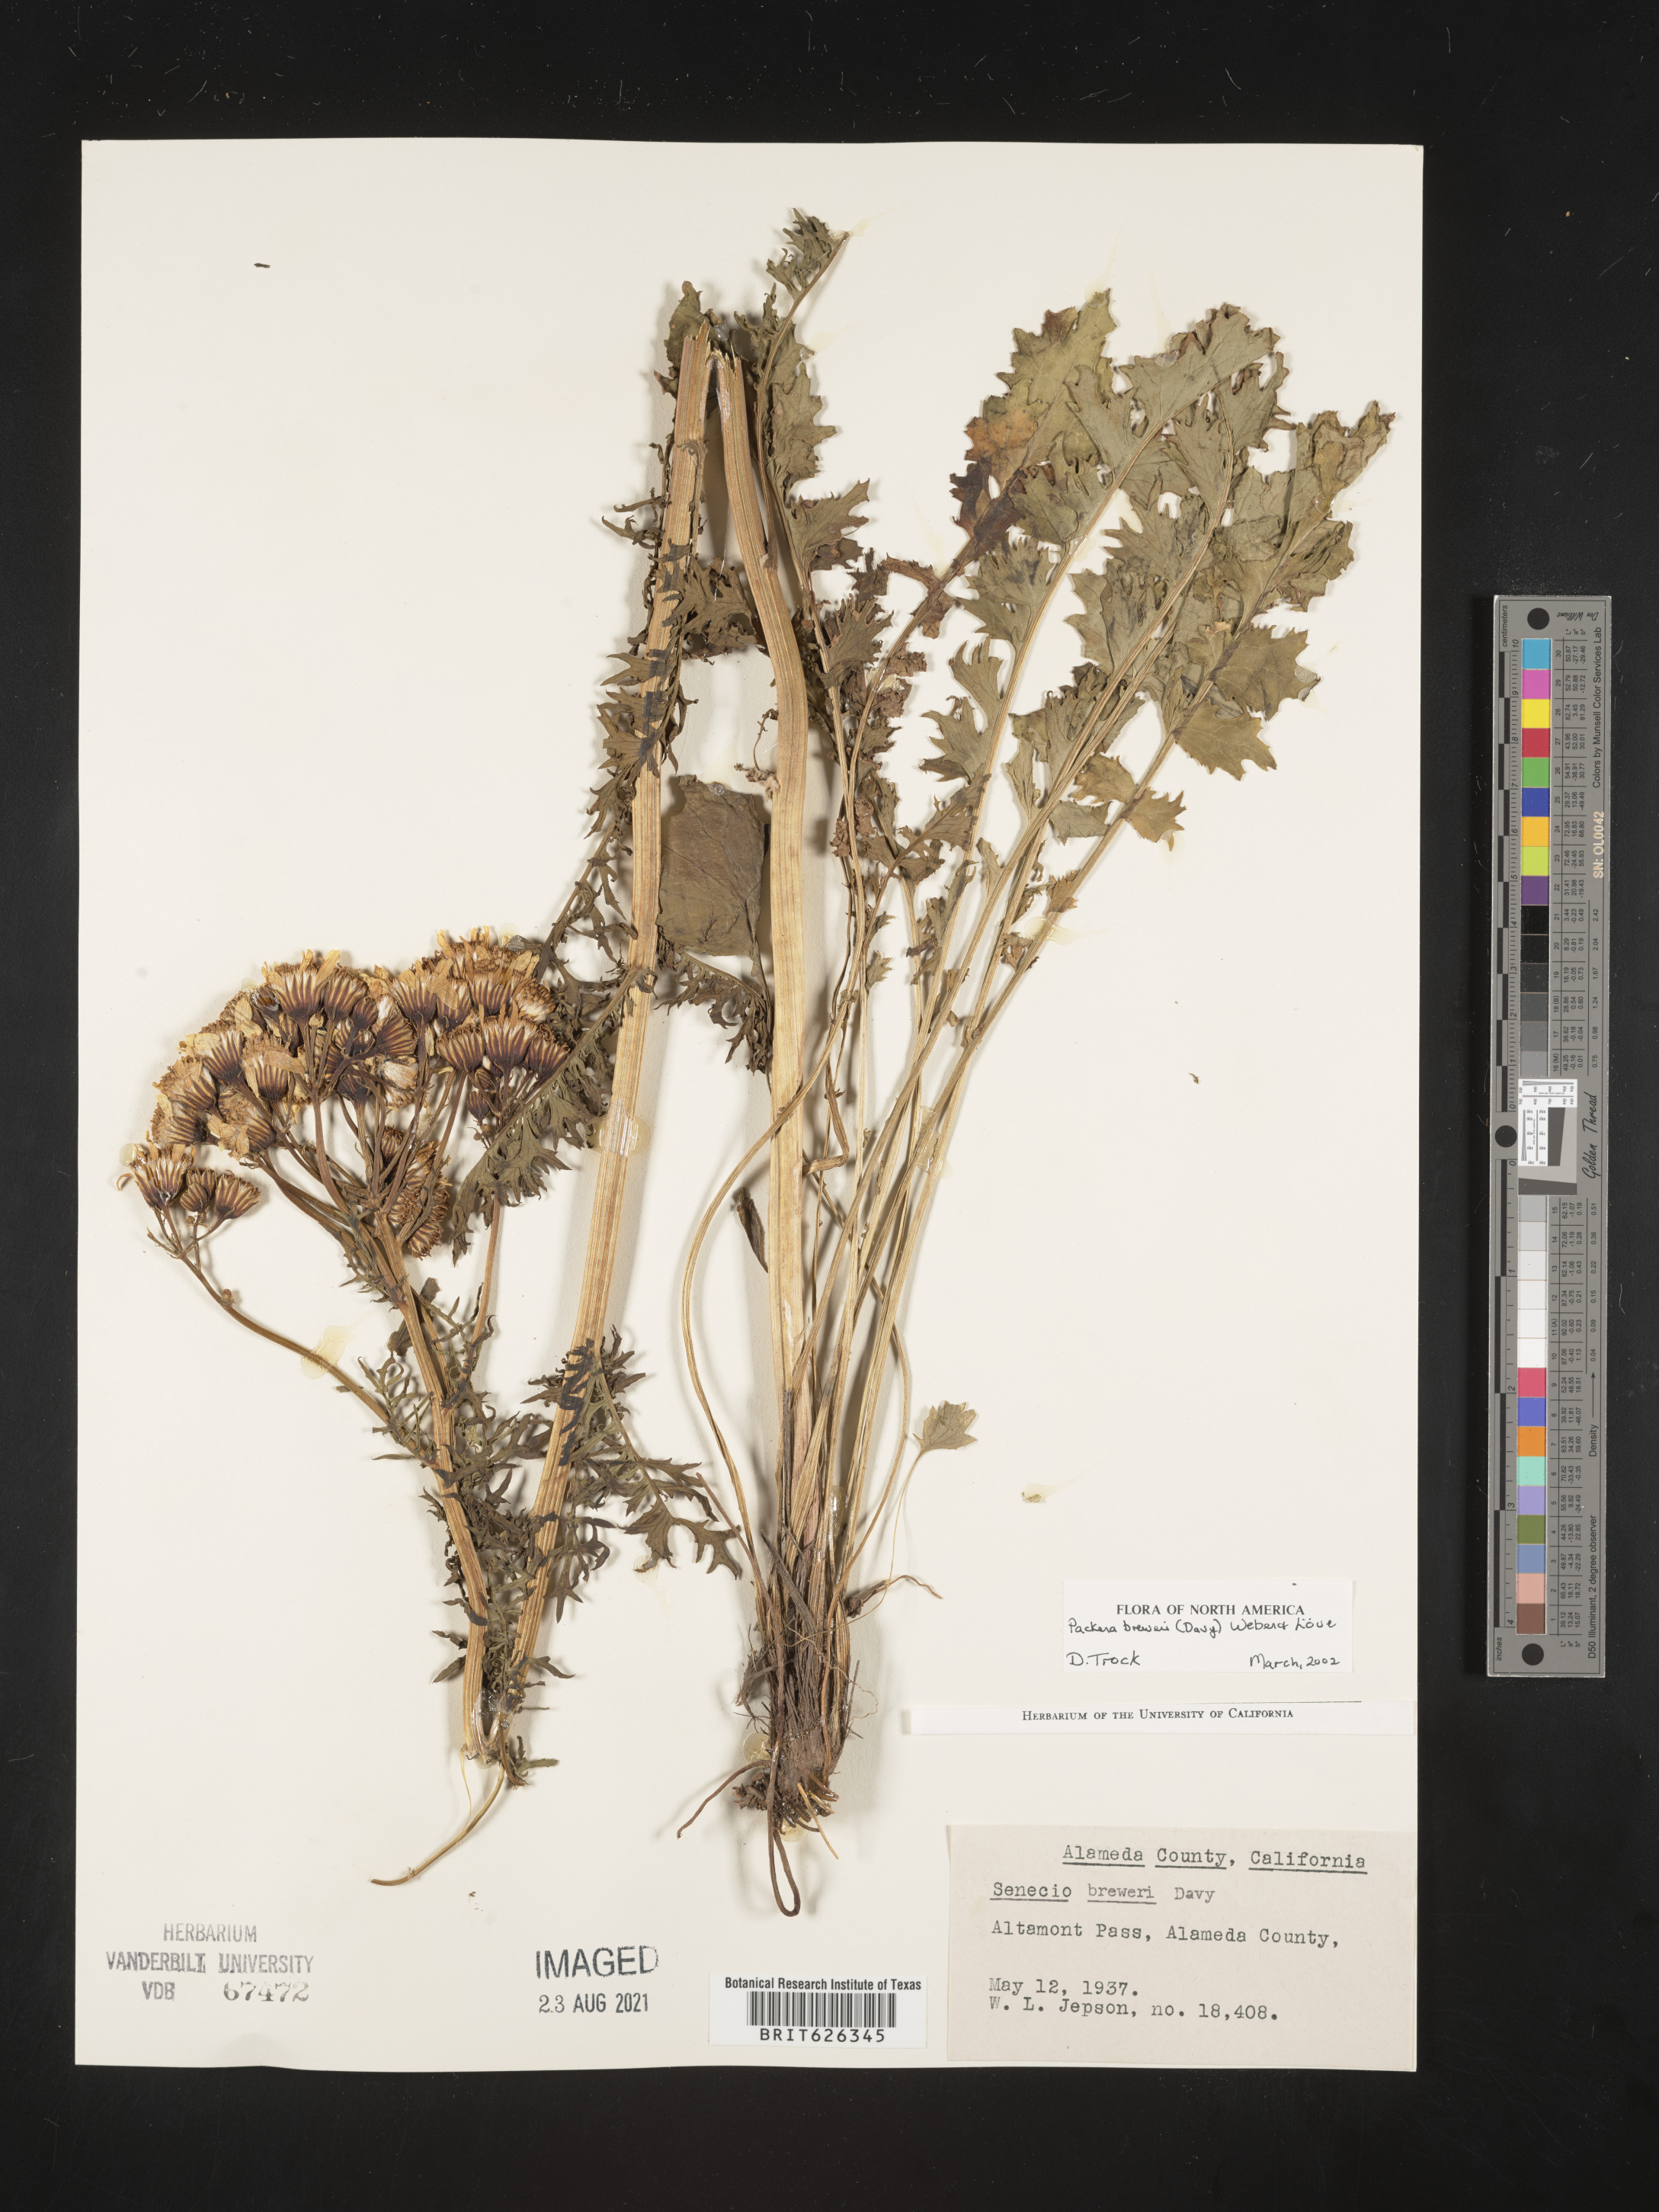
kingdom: Plantae
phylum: Tracheophyta
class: Magnoliopsida
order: Asterales
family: Asteraceae
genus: Senecio
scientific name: Senecio
